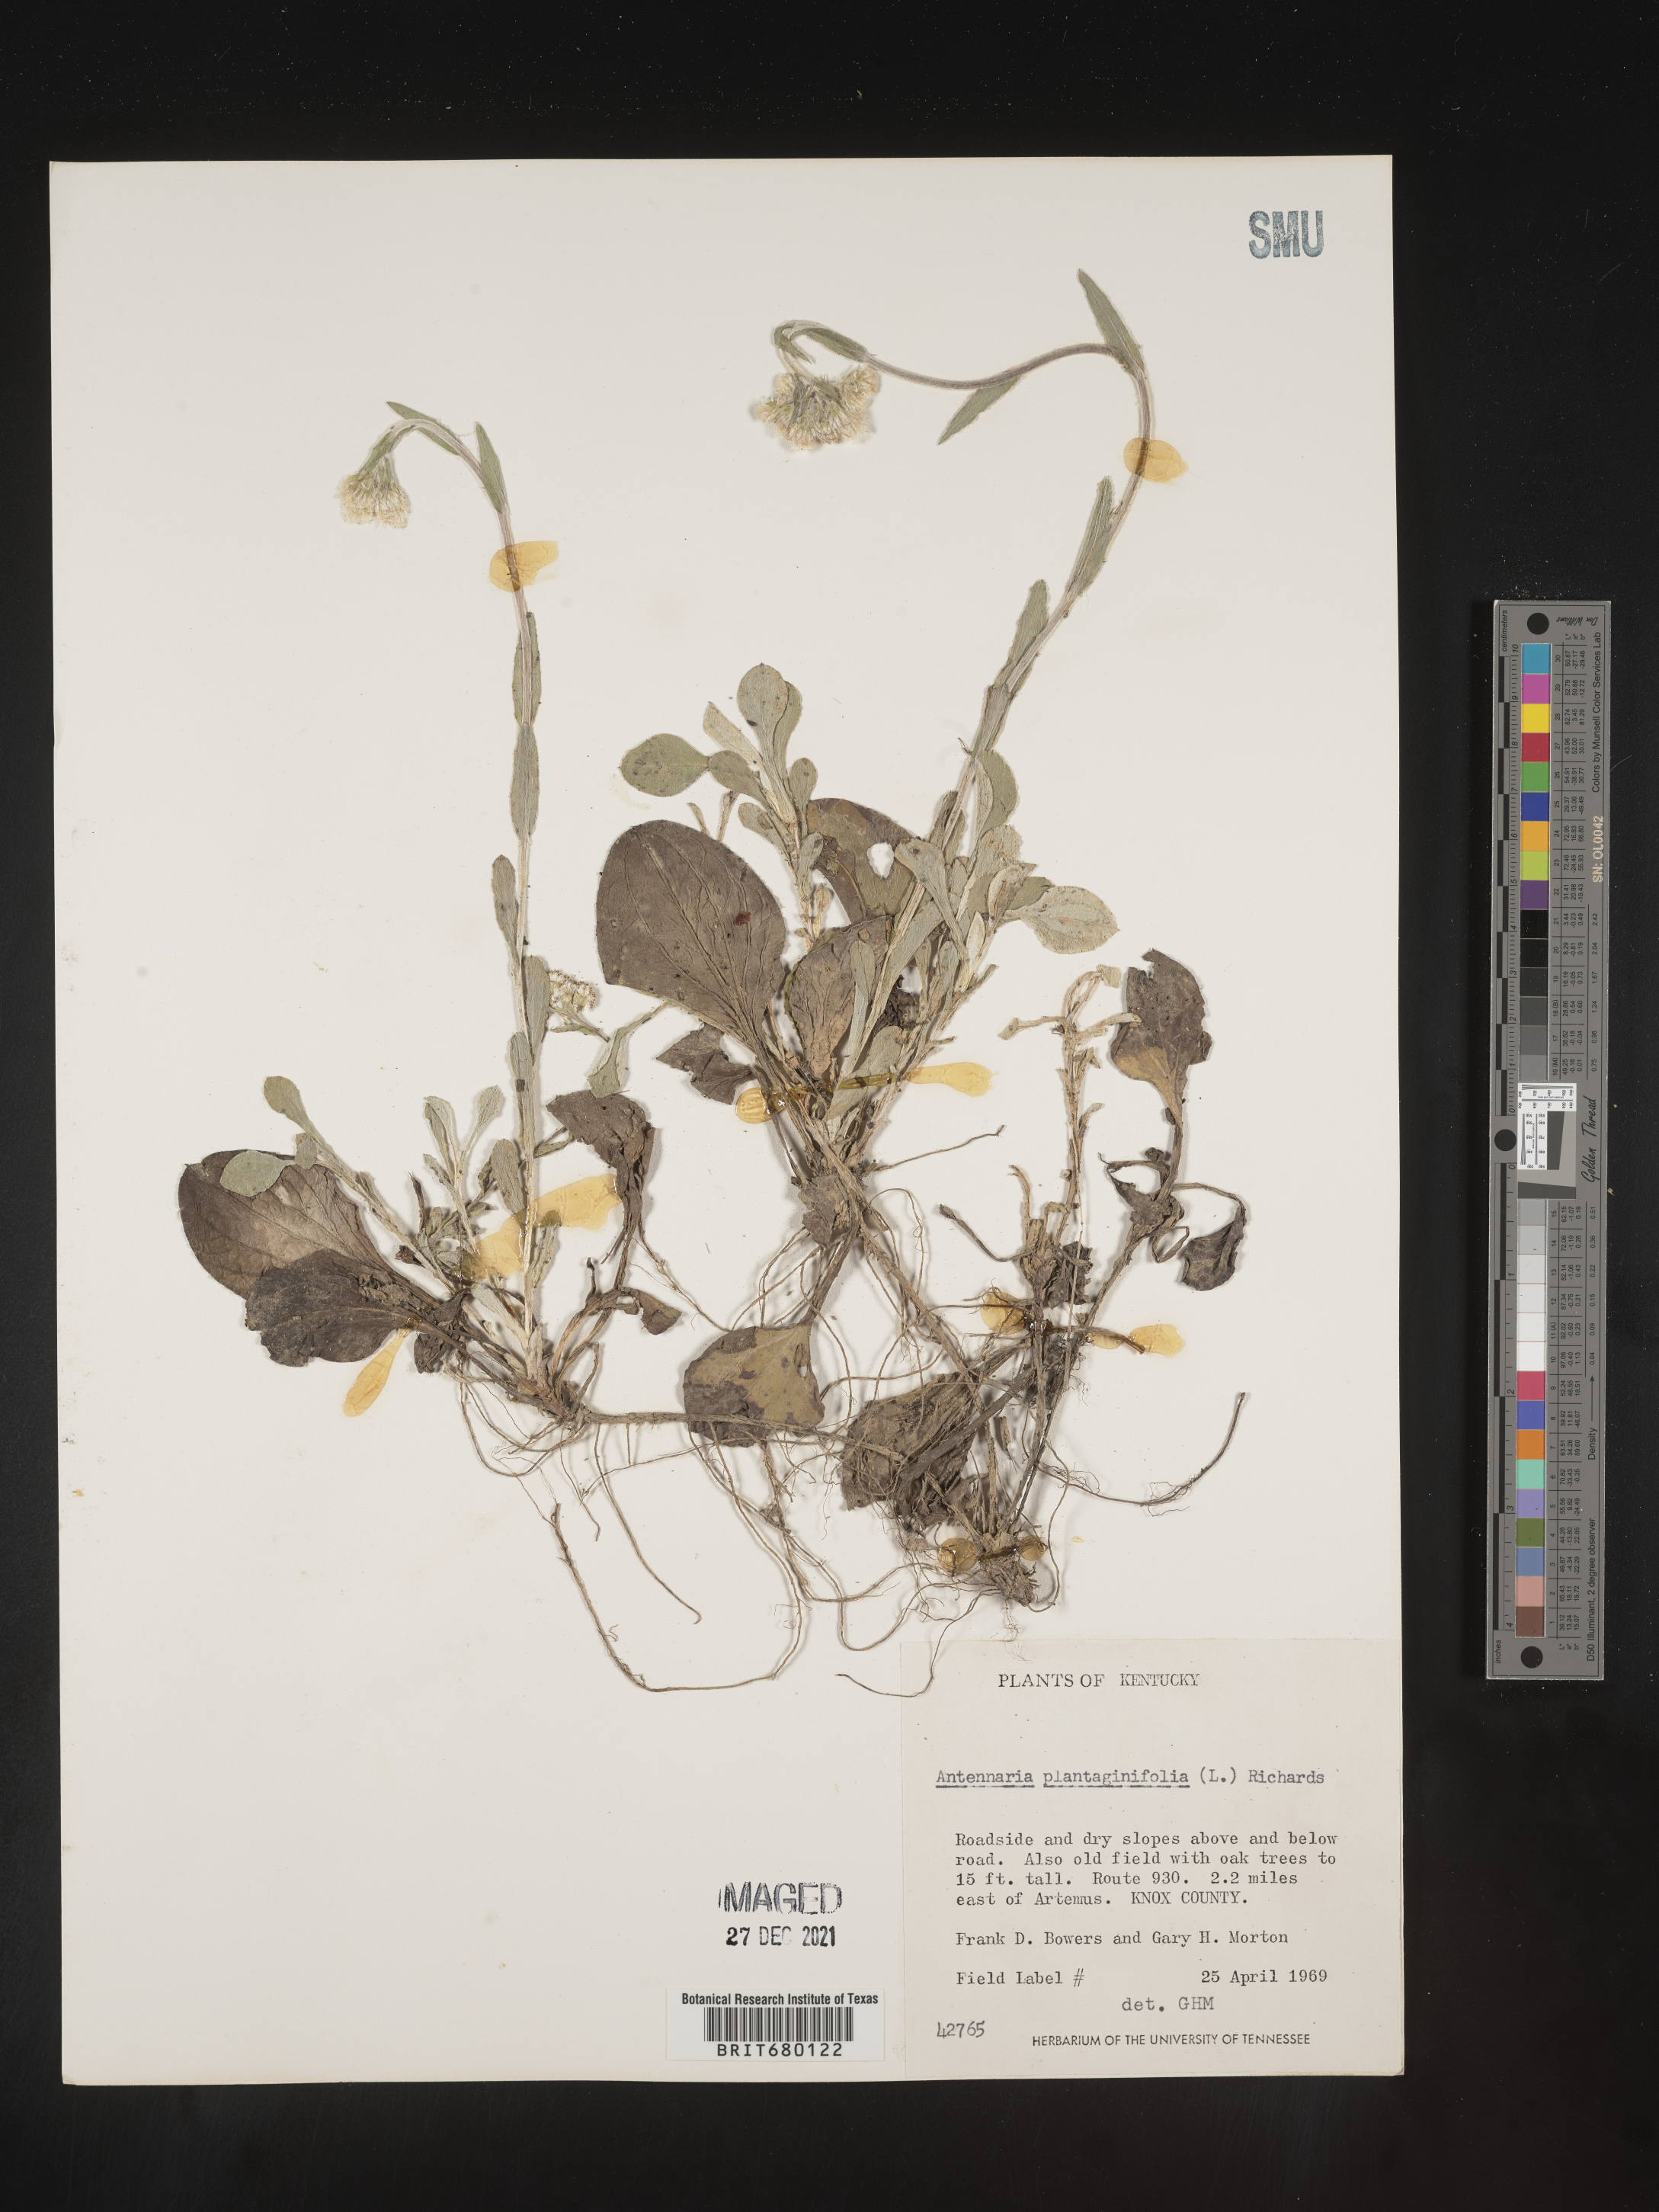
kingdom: Plantae
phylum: Tracheophyta
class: Magnoliopsida
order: Asterales
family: Asteraceae
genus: Antennaria
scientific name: Antennaria plantaginifolia
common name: Plantain-leaved pussytoes
